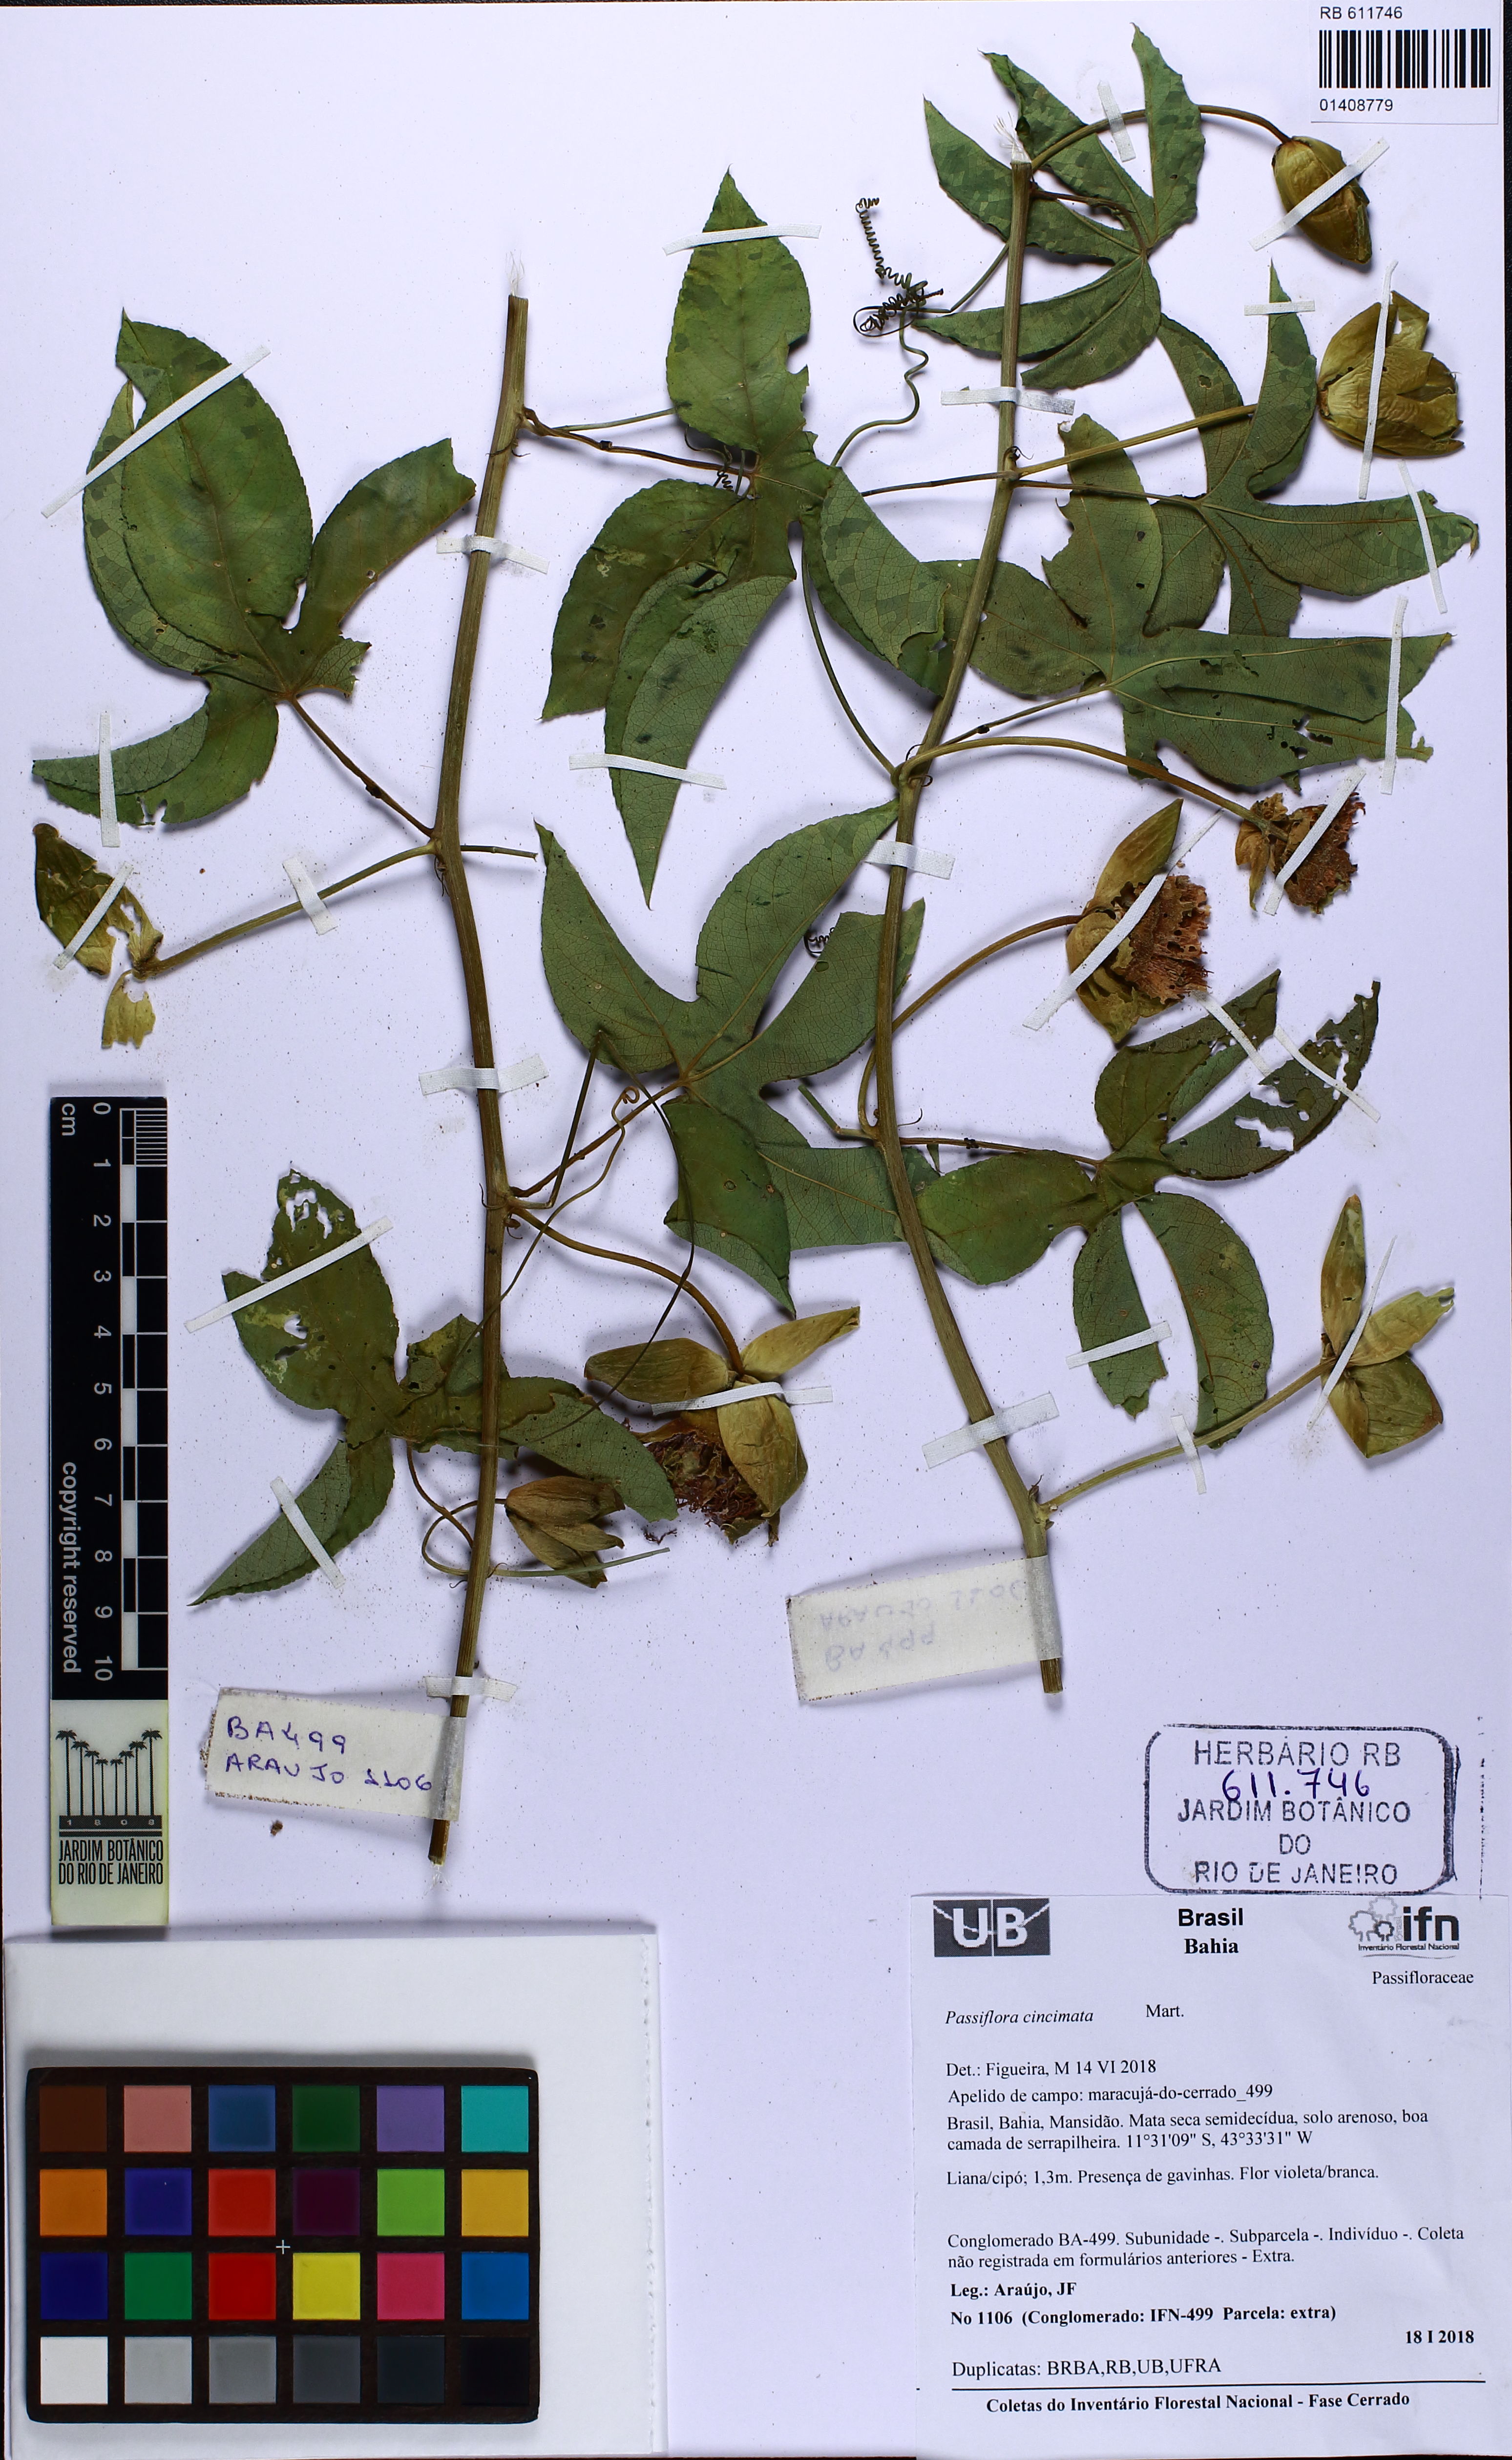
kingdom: Plantae
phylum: Tracheophyta
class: Magnoliopsida
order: Malpighiales
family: Passifloraceae
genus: Passiflora
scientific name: Passiflora cincinnata
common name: Crato passionvine
